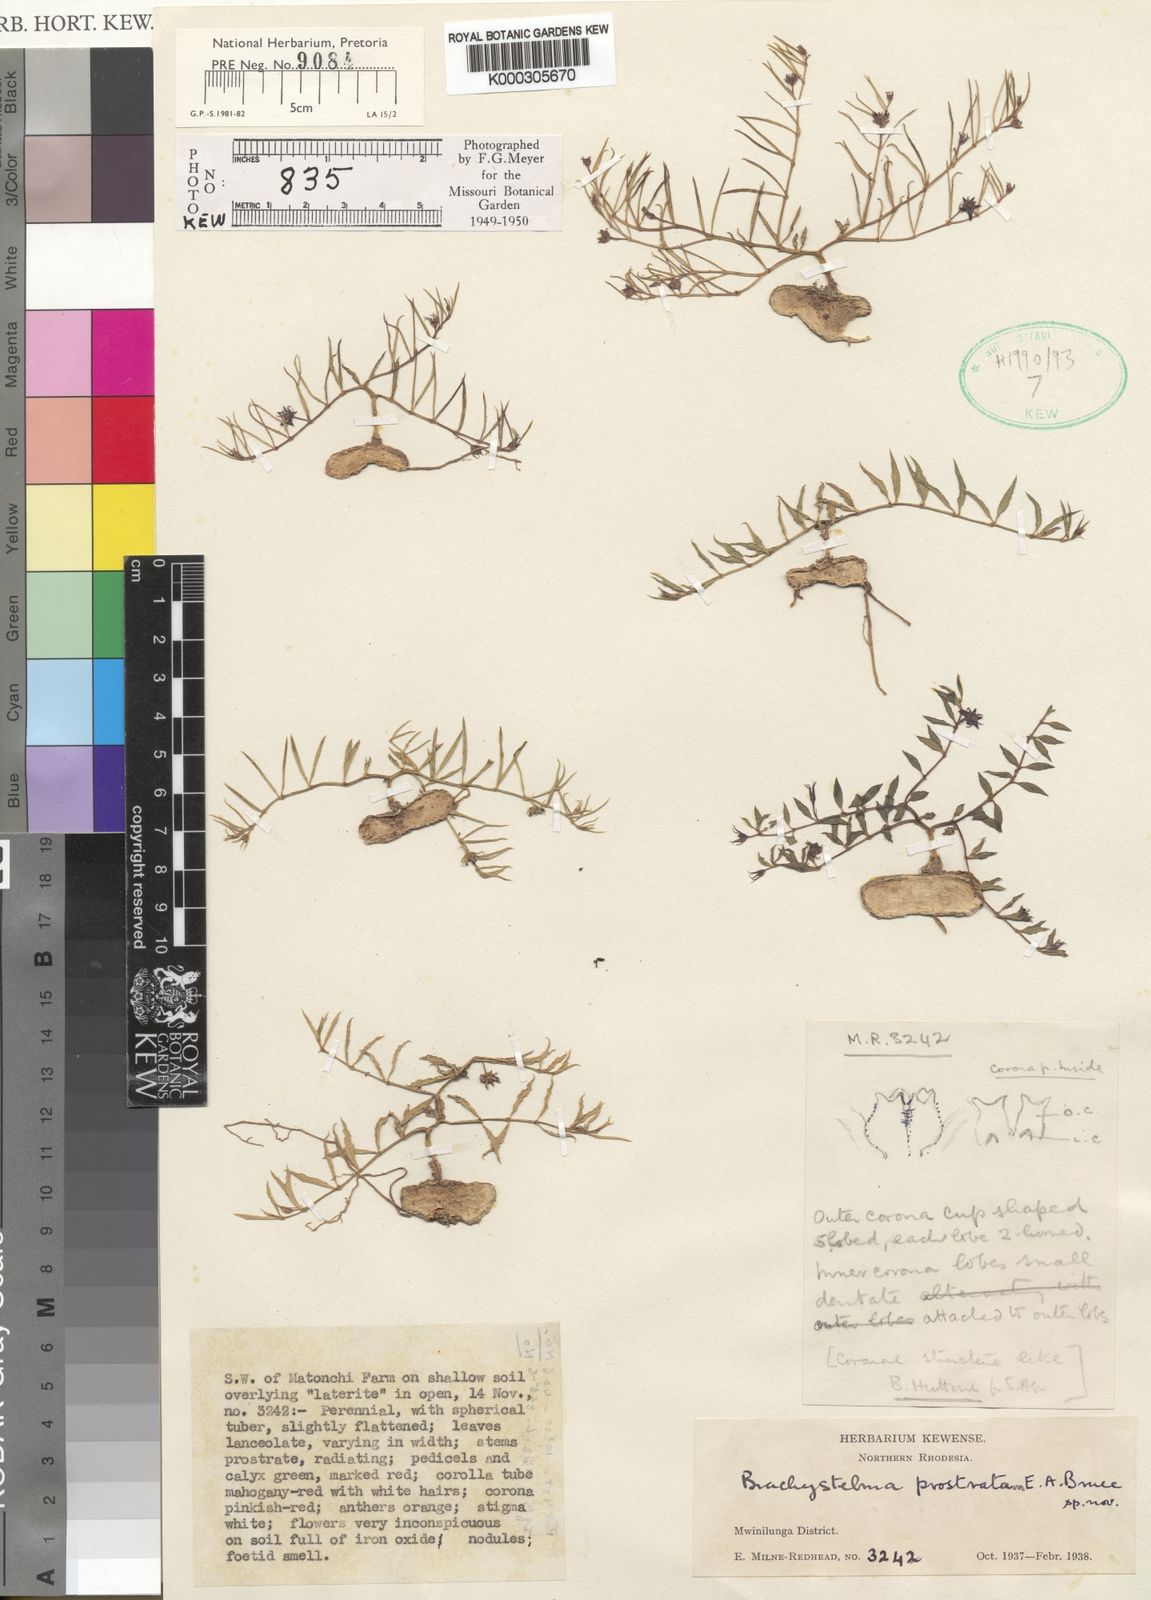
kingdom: Plantae
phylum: Tracheophyta
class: Magnoliopsida
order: Gentianales
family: Apocynaceae
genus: Ceropegia
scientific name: Ceropegia prostrata
